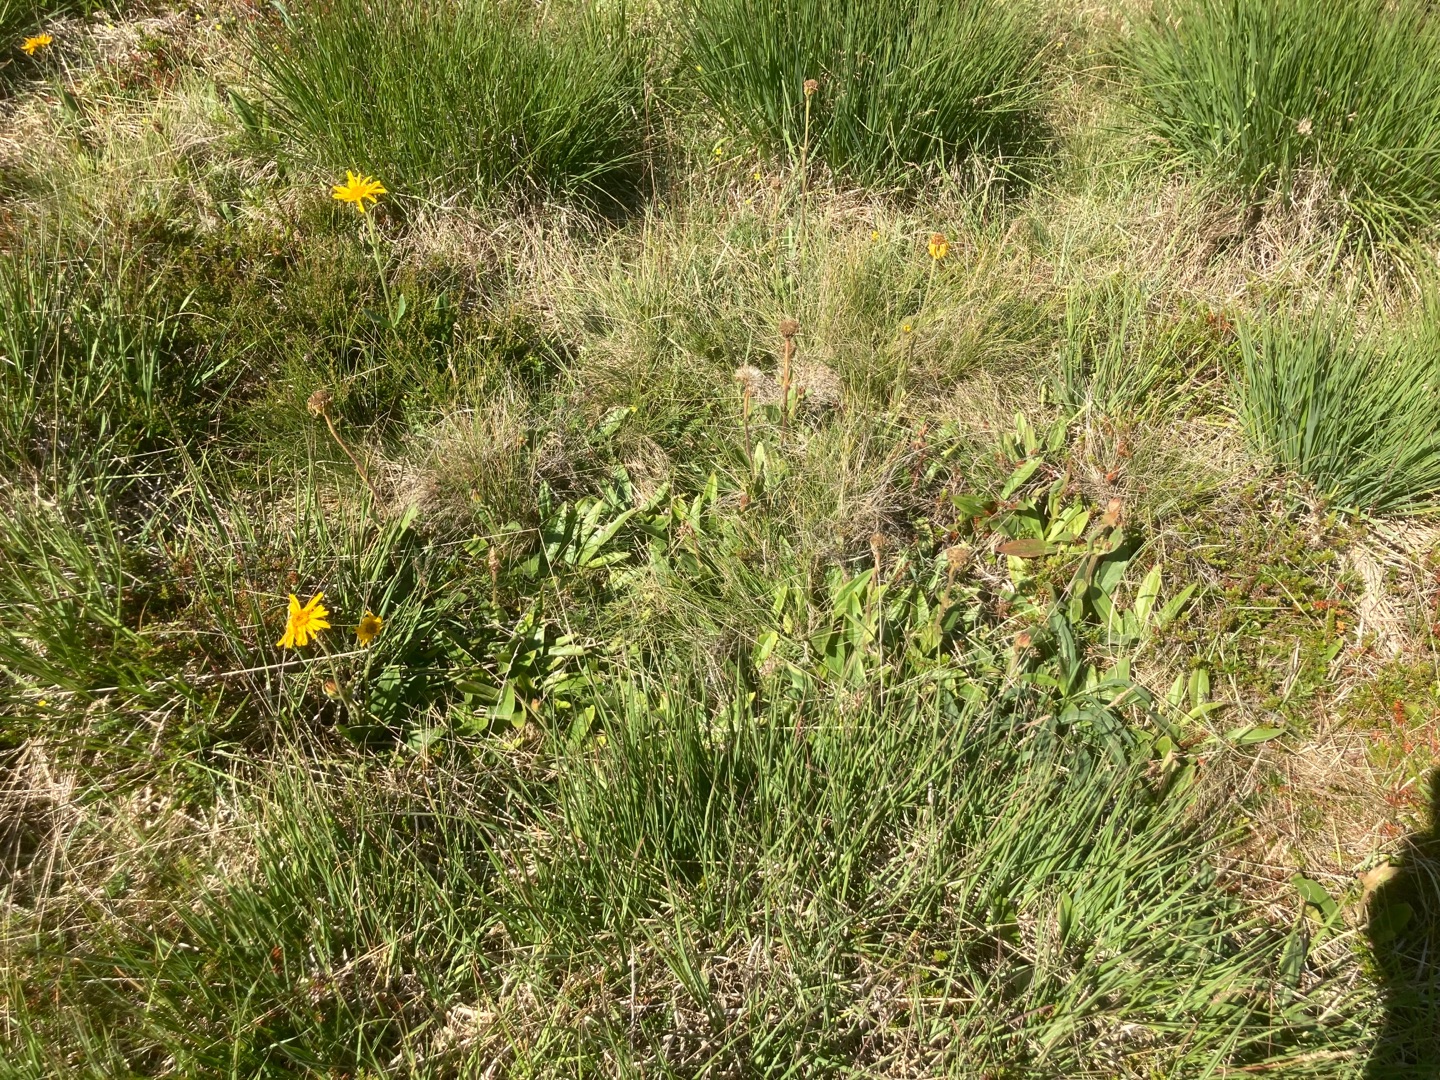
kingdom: Plantae
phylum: Tracheophyta
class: Magnoliopsida
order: Asterales
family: Asteraceae
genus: Arnica
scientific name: Arnica montana
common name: Guldblomme
